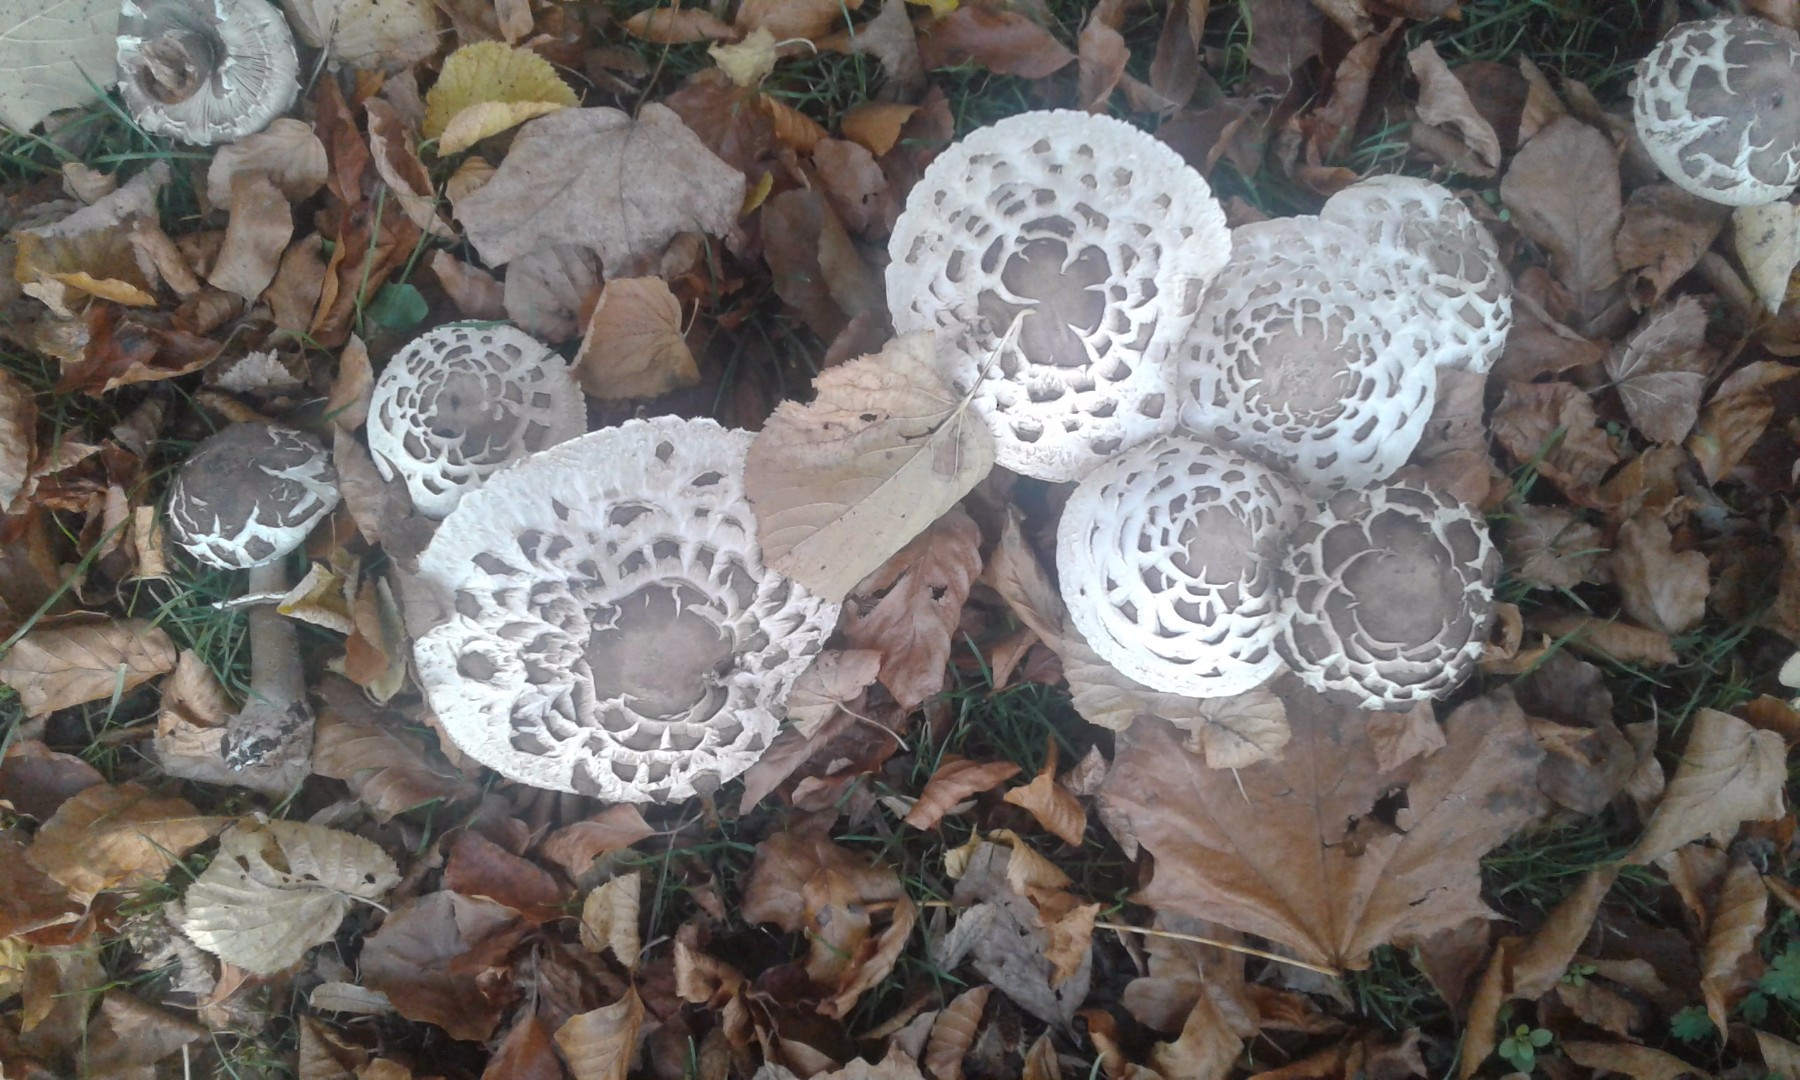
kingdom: Fungi
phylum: Basidiomycota
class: Agaricomycetes
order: Agaricales
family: Agaricaceae
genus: Chlorophyllum
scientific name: Chlorophyllum brunneum
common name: giftig rabarberhat
